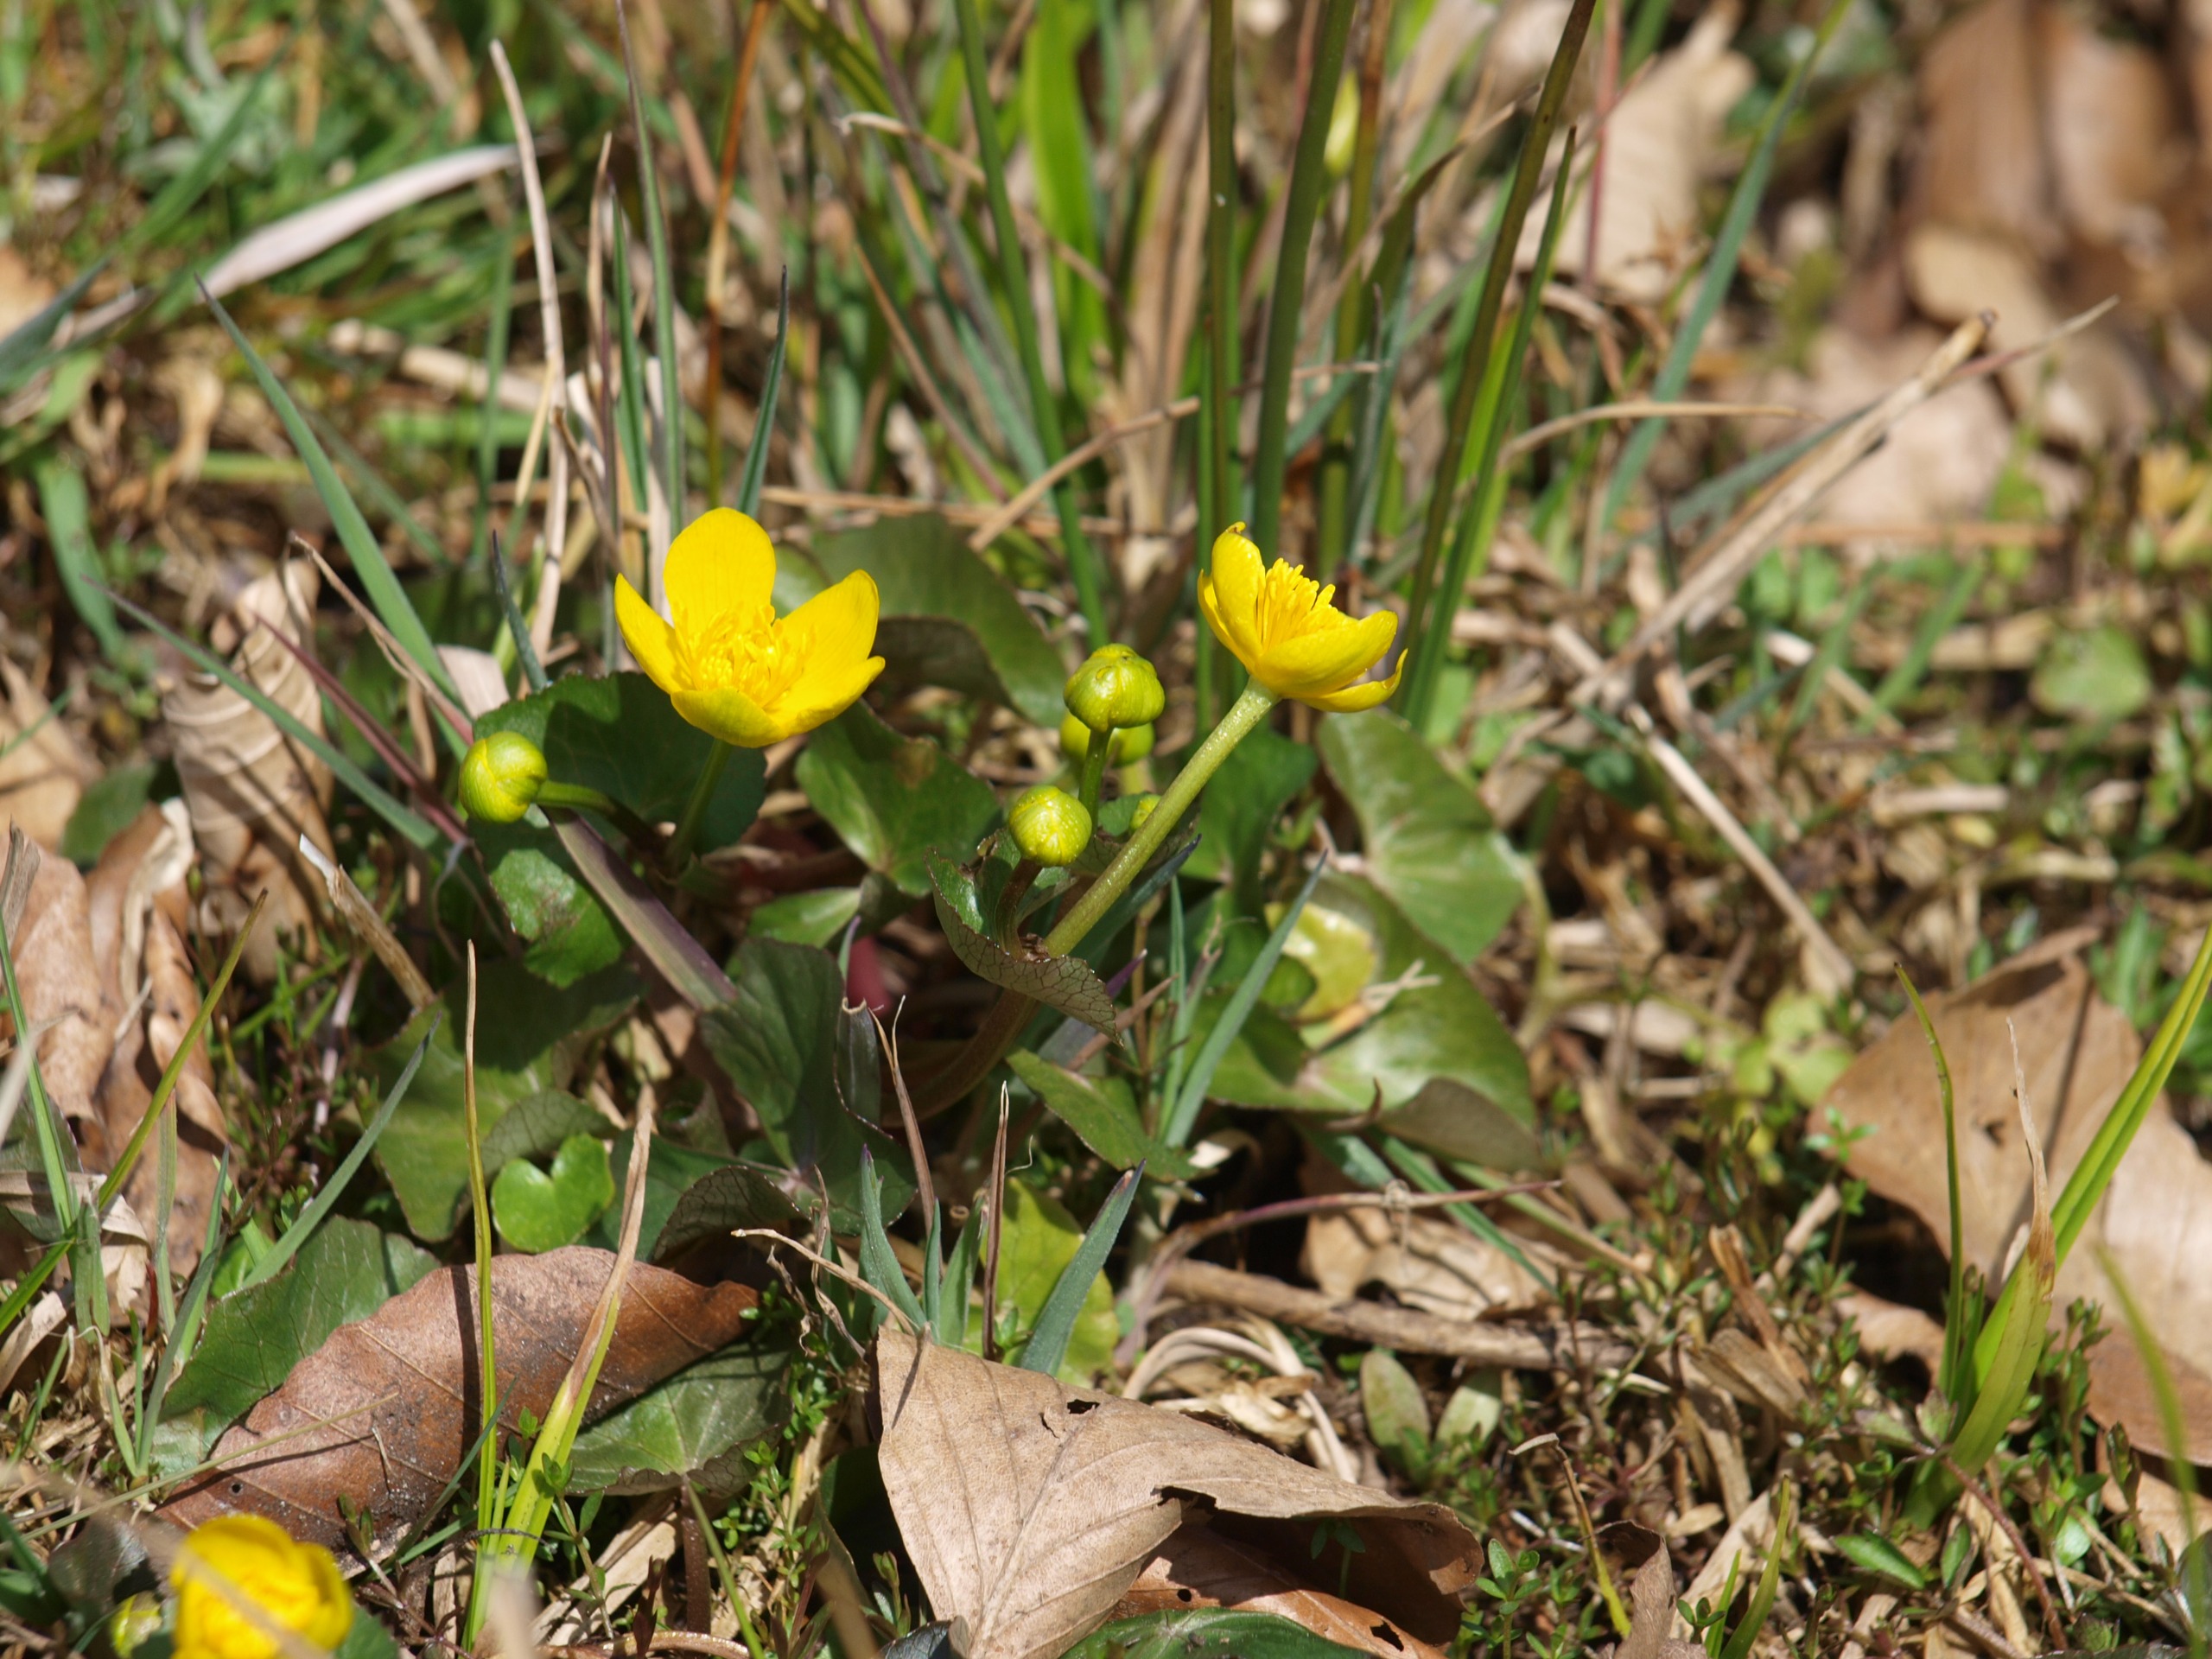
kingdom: Plantae
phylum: Tracheophyta
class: Magnoliopsida
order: Ranunculales
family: Ranunculaceae
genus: Caltha
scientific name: Caltha palustris
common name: Eng-kabbeleje
